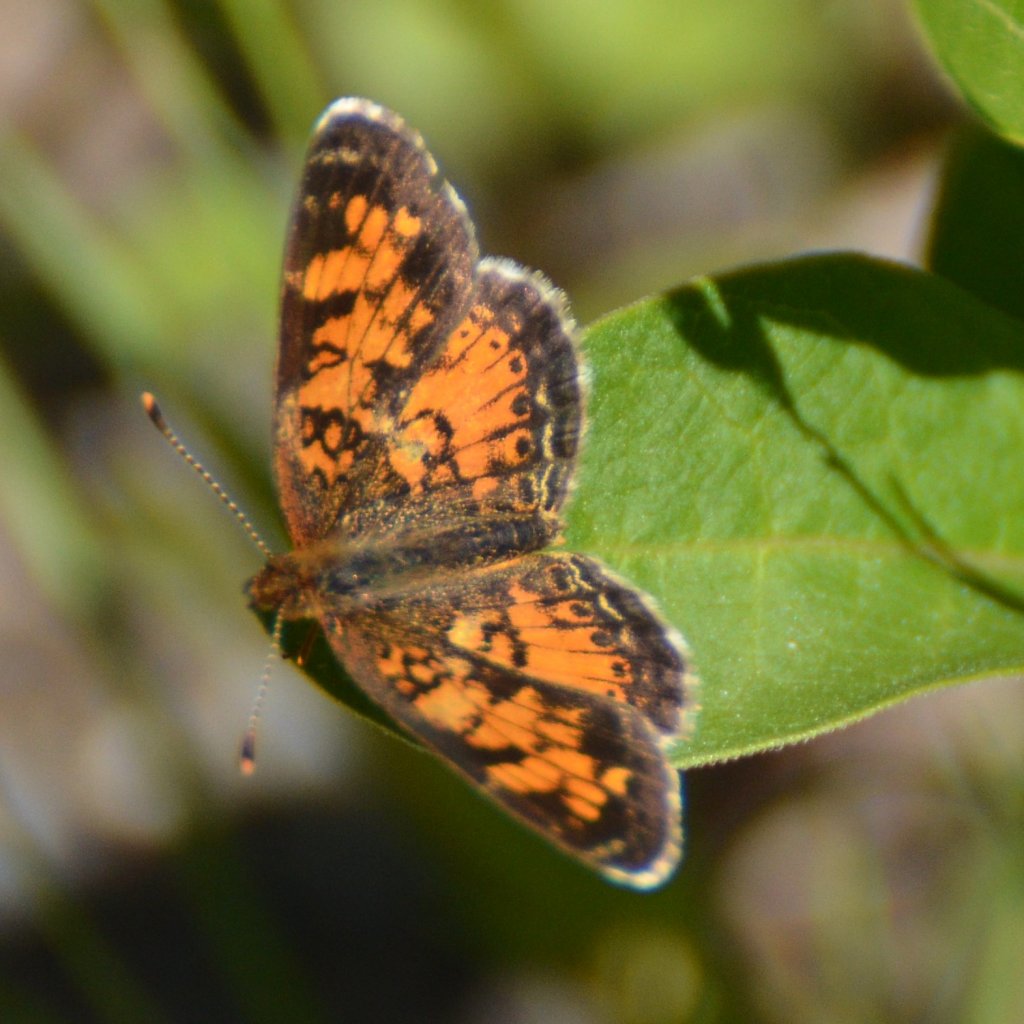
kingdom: Animalia
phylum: Arthropoda
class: Insecta
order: Lepidoptera
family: Nymphalidae
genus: Phyciodes
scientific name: Phyciodes tharos
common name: Northern Crescent
